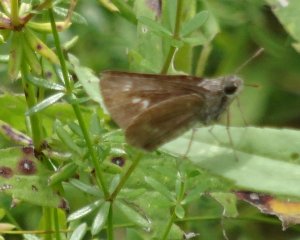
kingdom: Animalia
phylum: Arthropoda
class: Insecta
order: Lepidoptera
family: Hesperiidae
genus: Polites
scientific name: Polites egeremet
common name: Northern Broken-Dash
